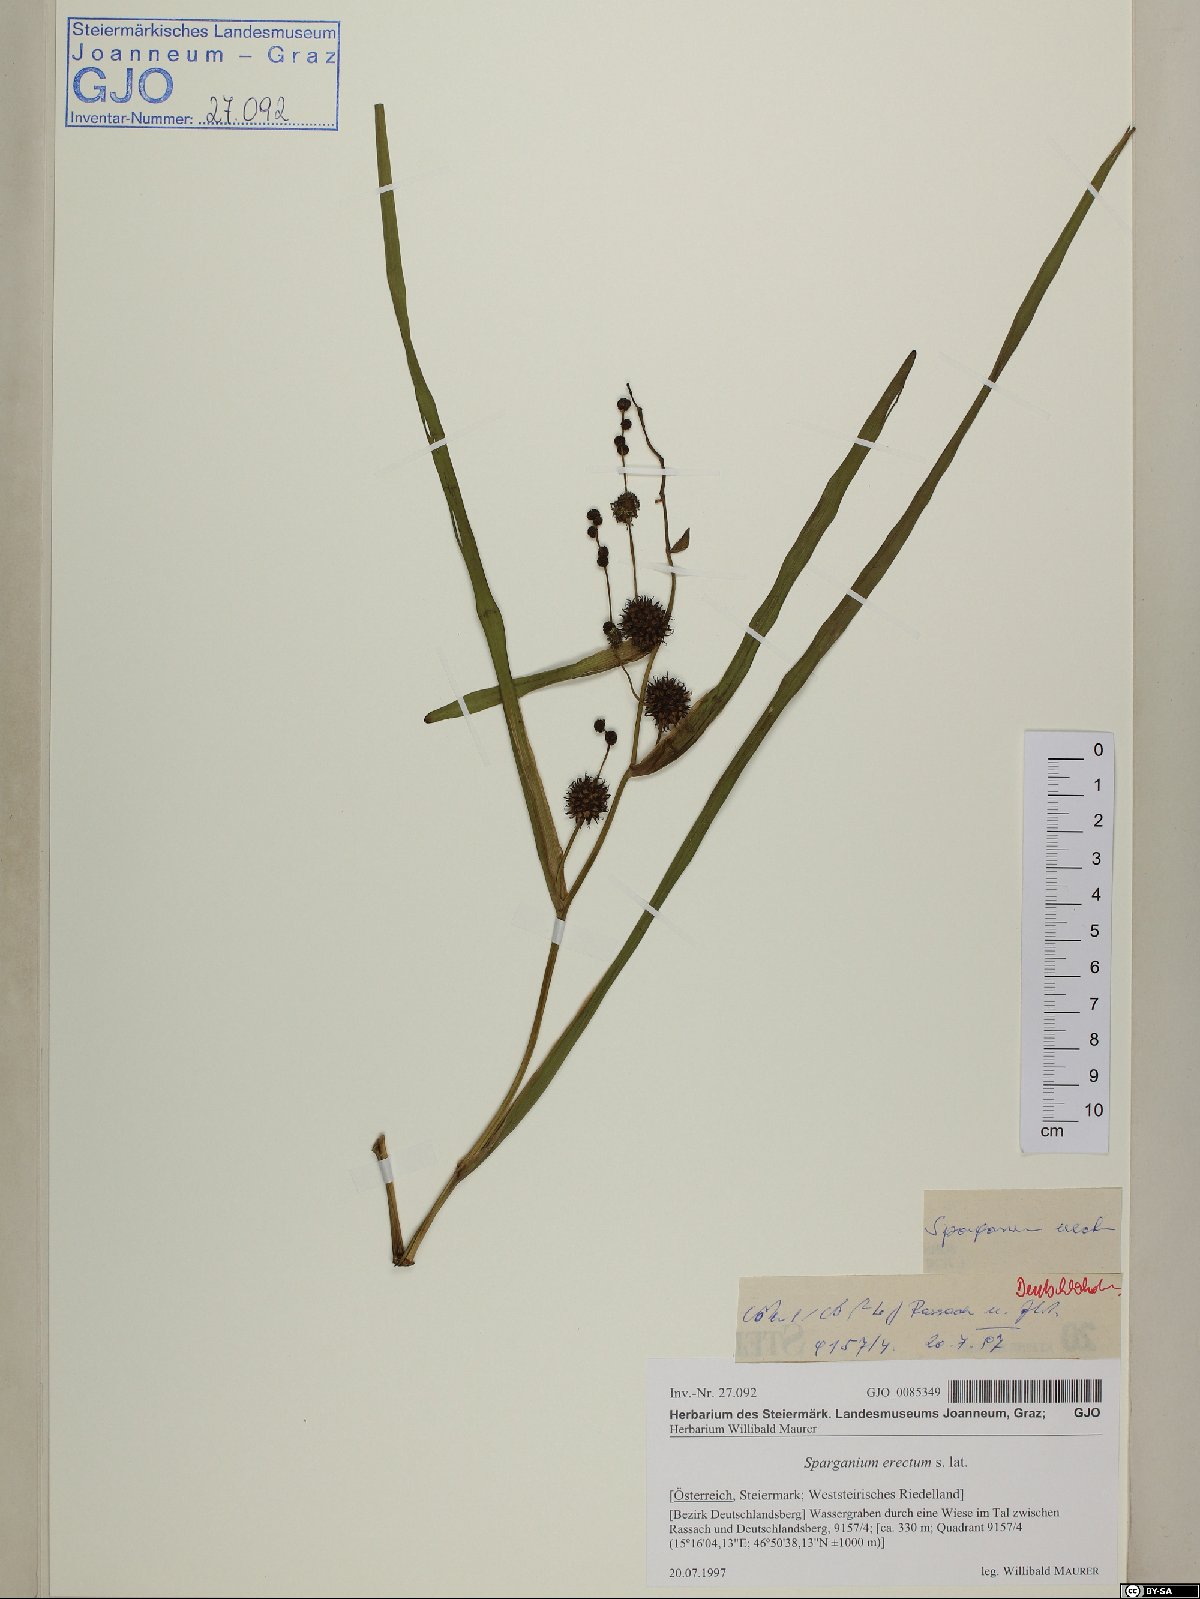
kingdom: Plantae
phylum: Tracheophyta
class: Liliopsida
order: Poales
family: Typhaceae
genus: Sparganium
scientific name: Sparganium erectum
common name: Branched bur-reed
